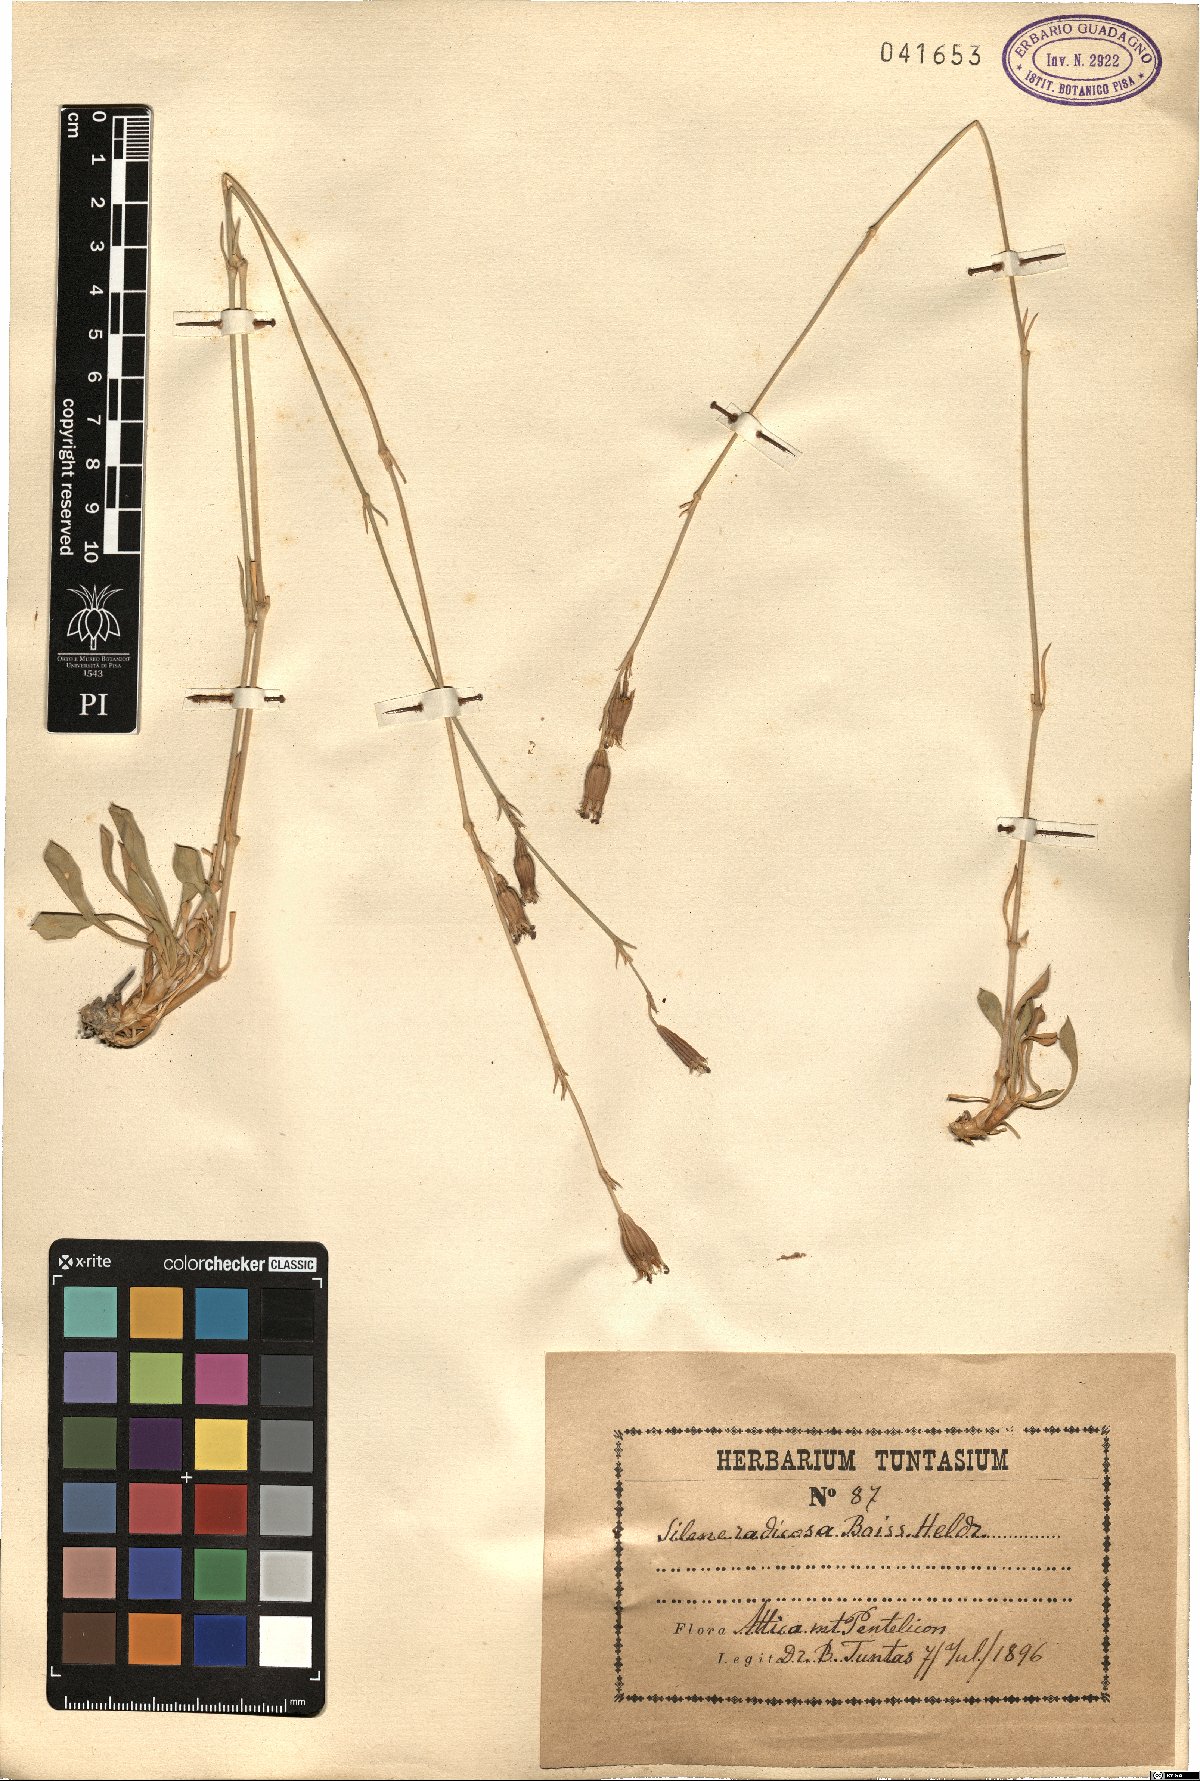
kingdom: Plantae
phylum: Tracheophyta
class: Magnoliopsida
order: Caryophyllales
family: Caryophyllaceae
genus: Silene
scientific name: Silene radicosa
